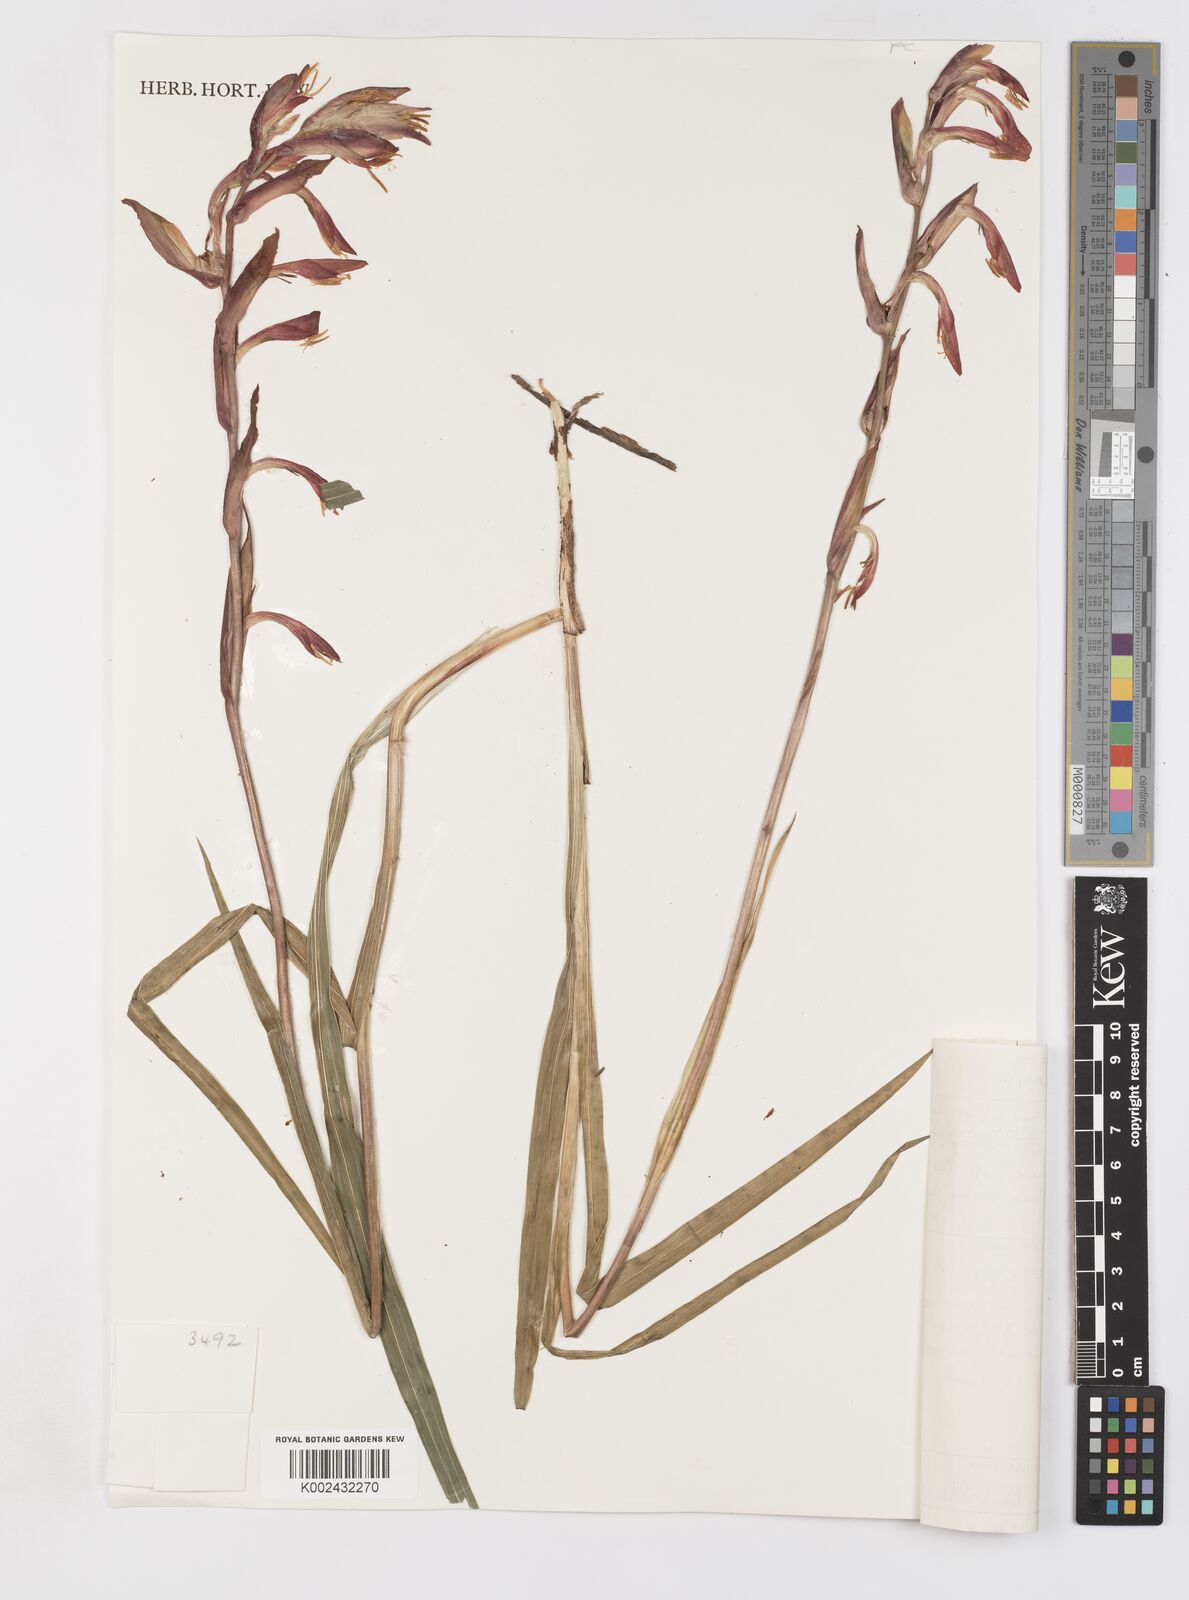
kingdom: Plantae
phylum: Tracheophyta
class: Liliopsida
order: Asparagales
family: Iridaceae
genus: Gladiolus
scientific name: Gladiolus abyssinicus
